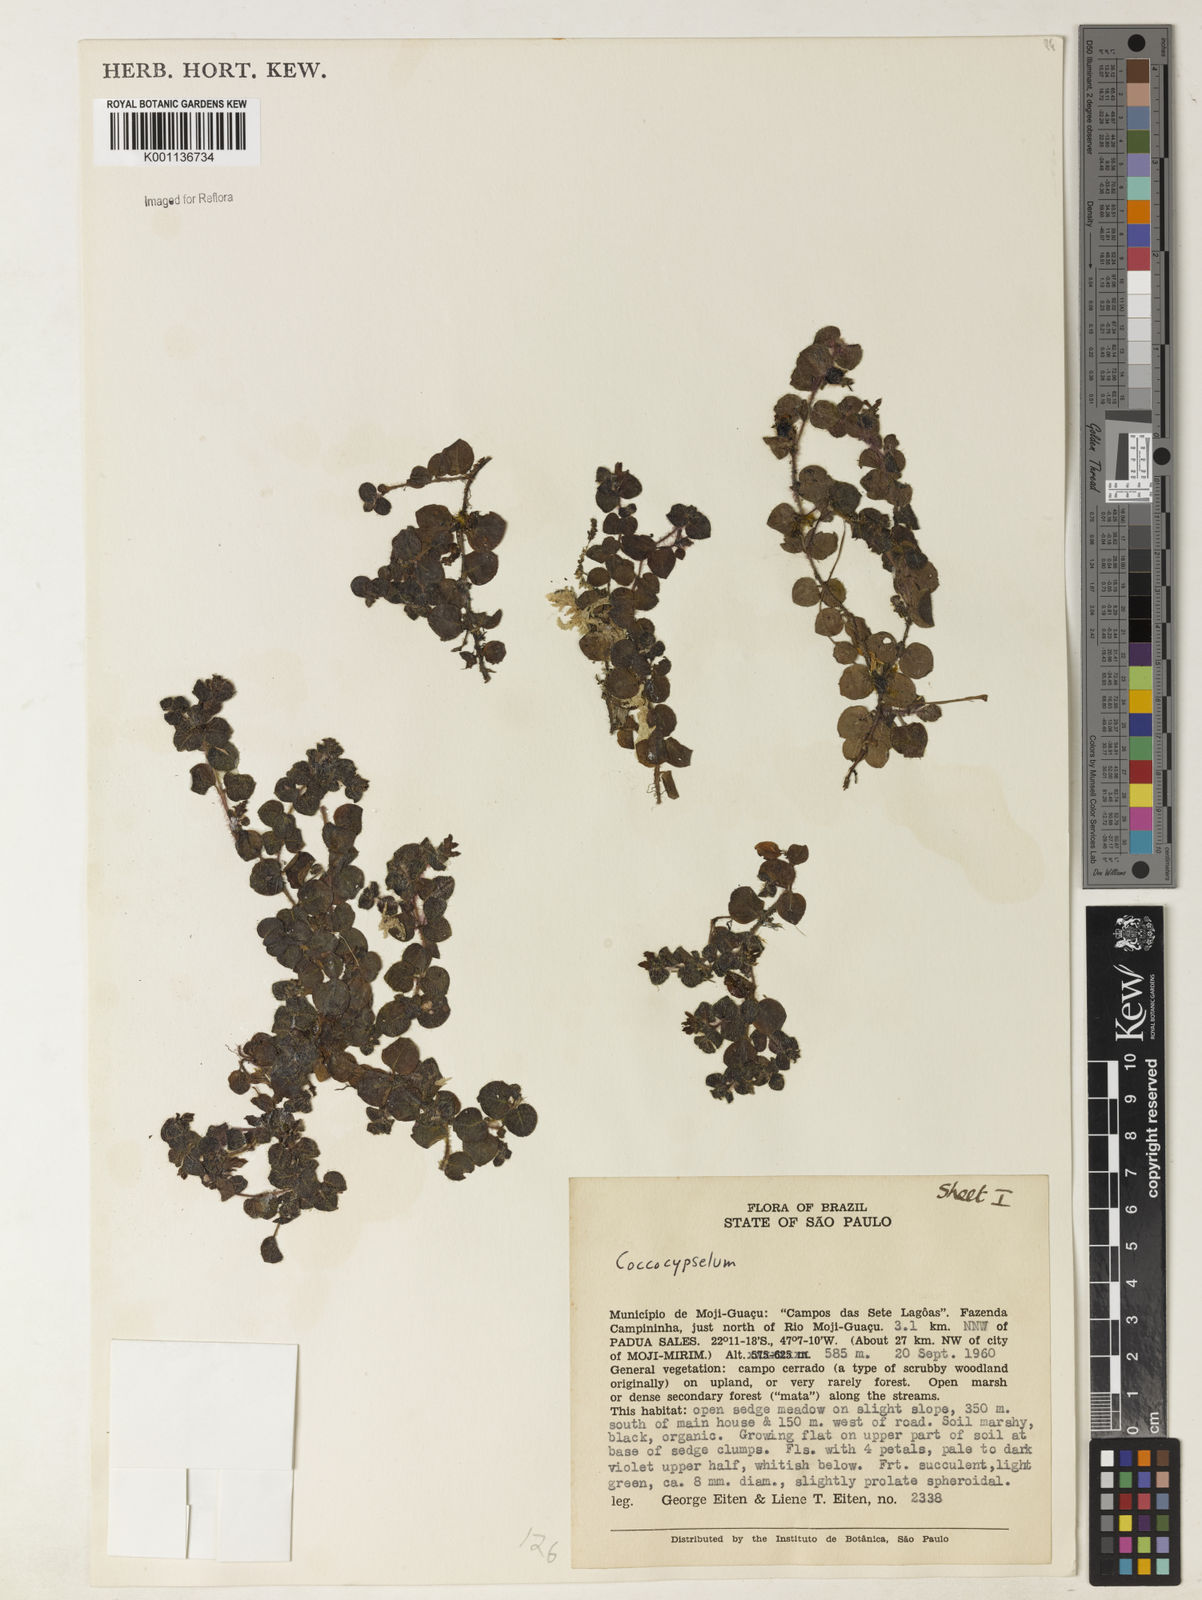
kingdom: Plantae
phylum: Tracheophyta
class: Magnoliopsida
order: Gentianales
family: Rubiaceae
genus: Coccocypselum
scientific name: Coccocypselum lymansmithii
